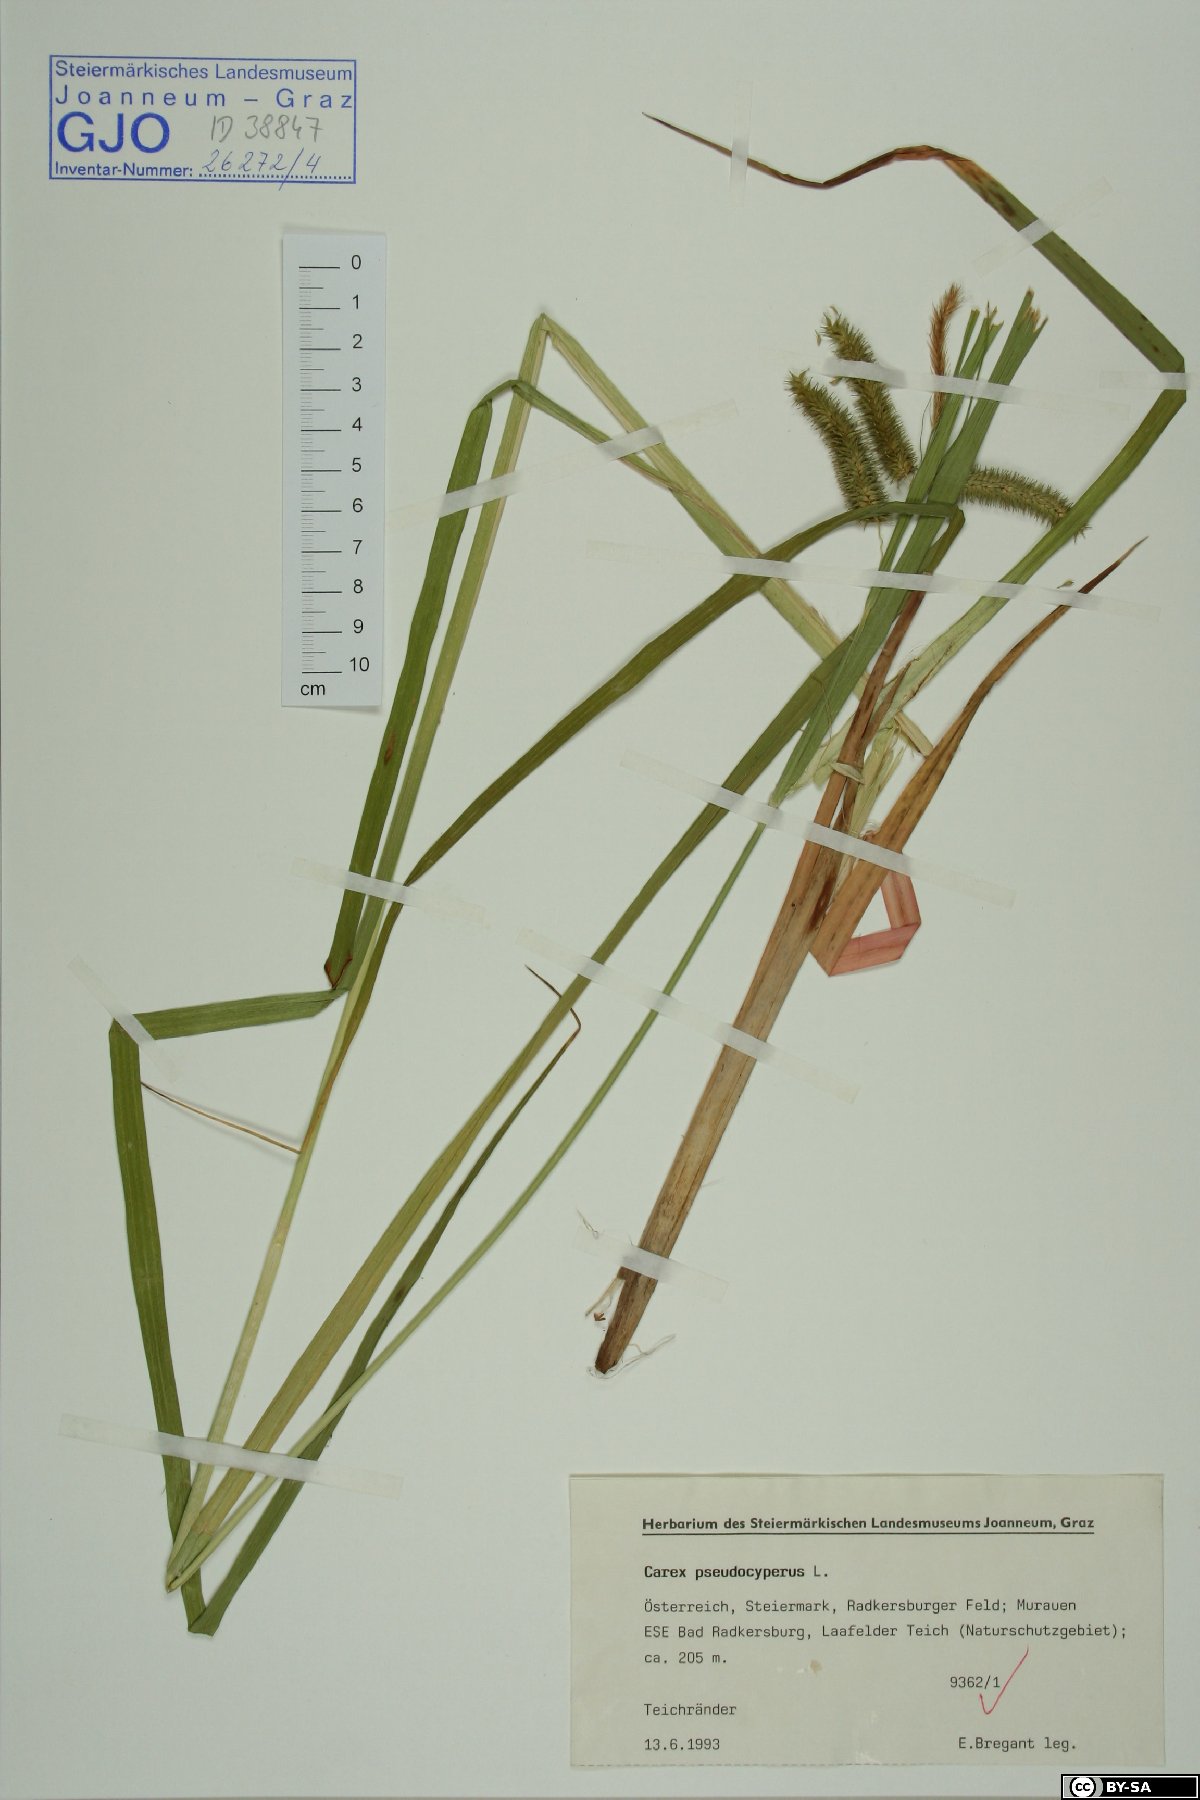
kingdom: Plantae
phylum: Tracheophyta
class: Liliopsida
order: Poales
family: Cyperaceae
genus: Carex
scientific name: Carex pseudocyperus
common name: Cyperus sedge
